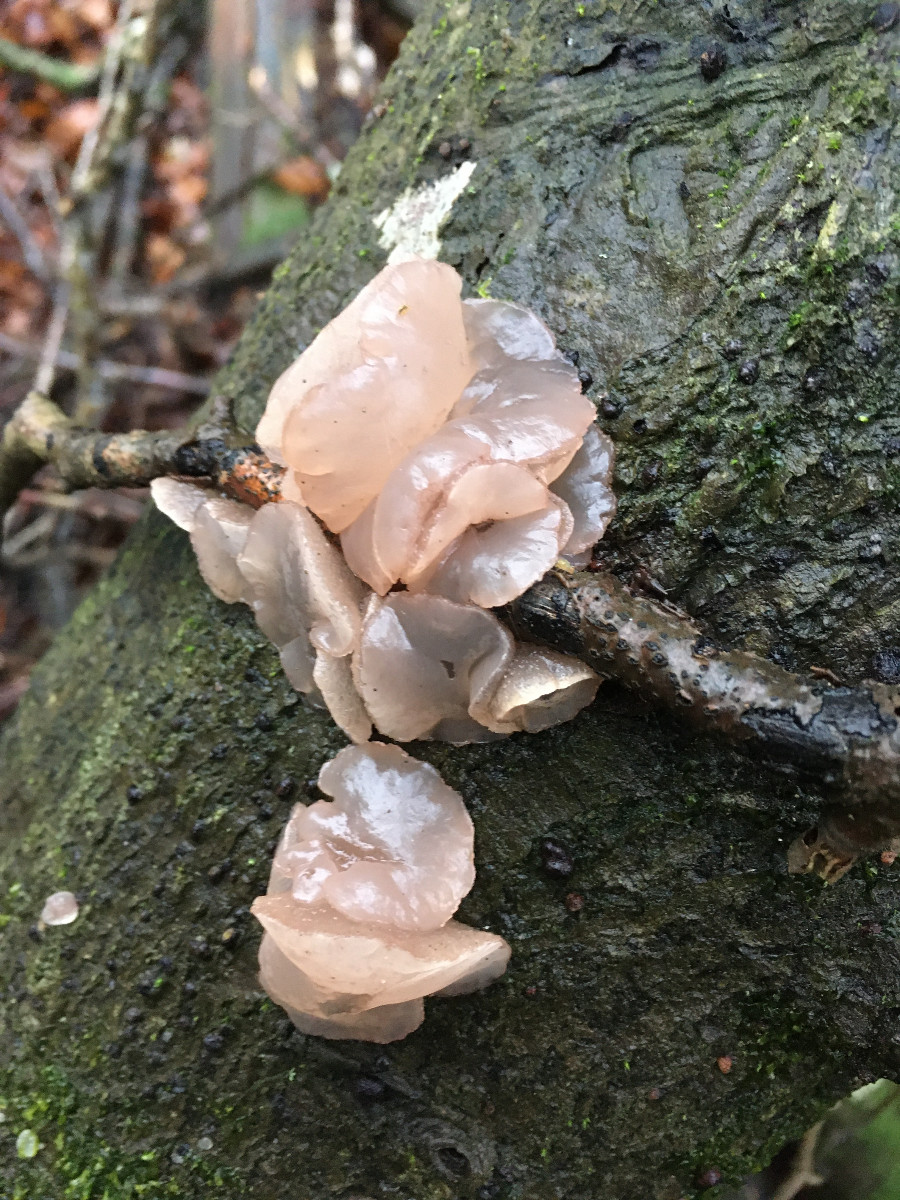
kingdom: Fungi
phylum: Ascomycota
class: Leotiomycetes
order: Helotiales
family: Gelatinodiscaceae
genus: Neobulgaria
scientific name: Neobulgaria pura
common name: bleg bævreskive
